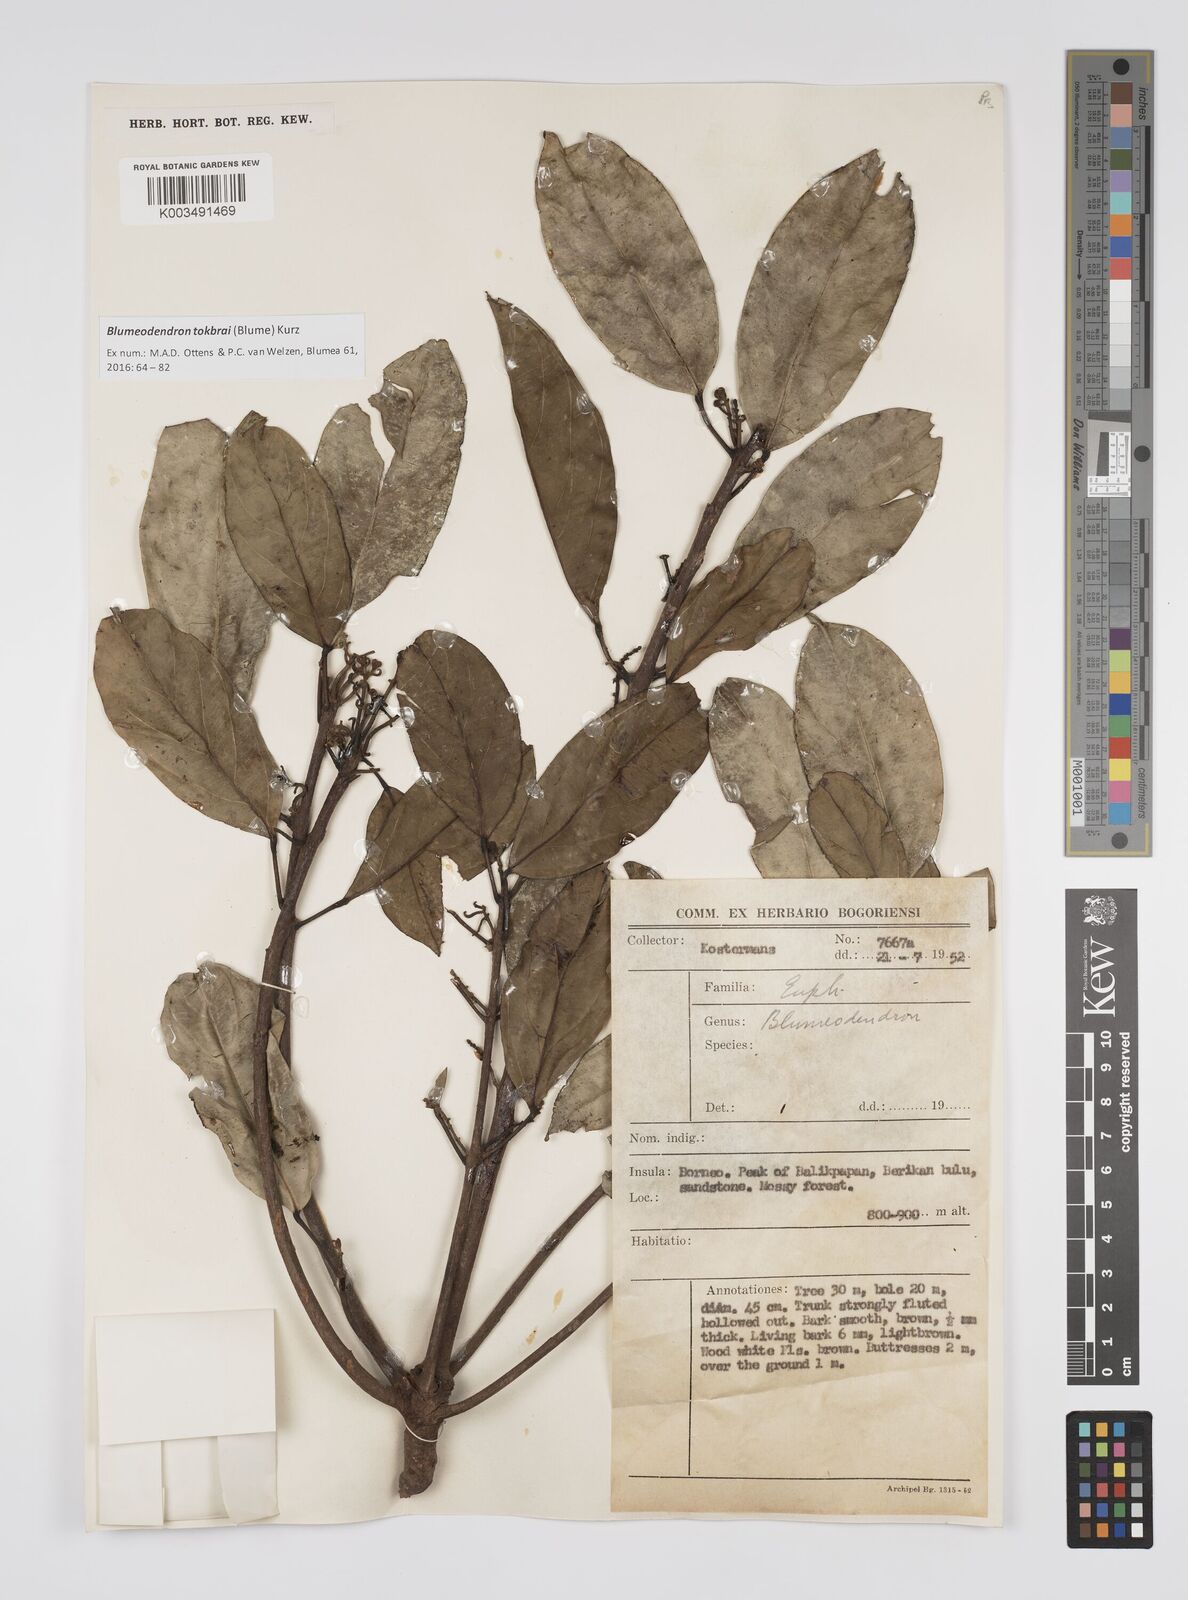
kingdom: Plantae
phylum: Tracheophyta
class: Magnoliopsida
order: Malpighiales
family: Euphorbiaceae
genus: Blumeodendron
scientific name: Blumeodendron tokbrai
